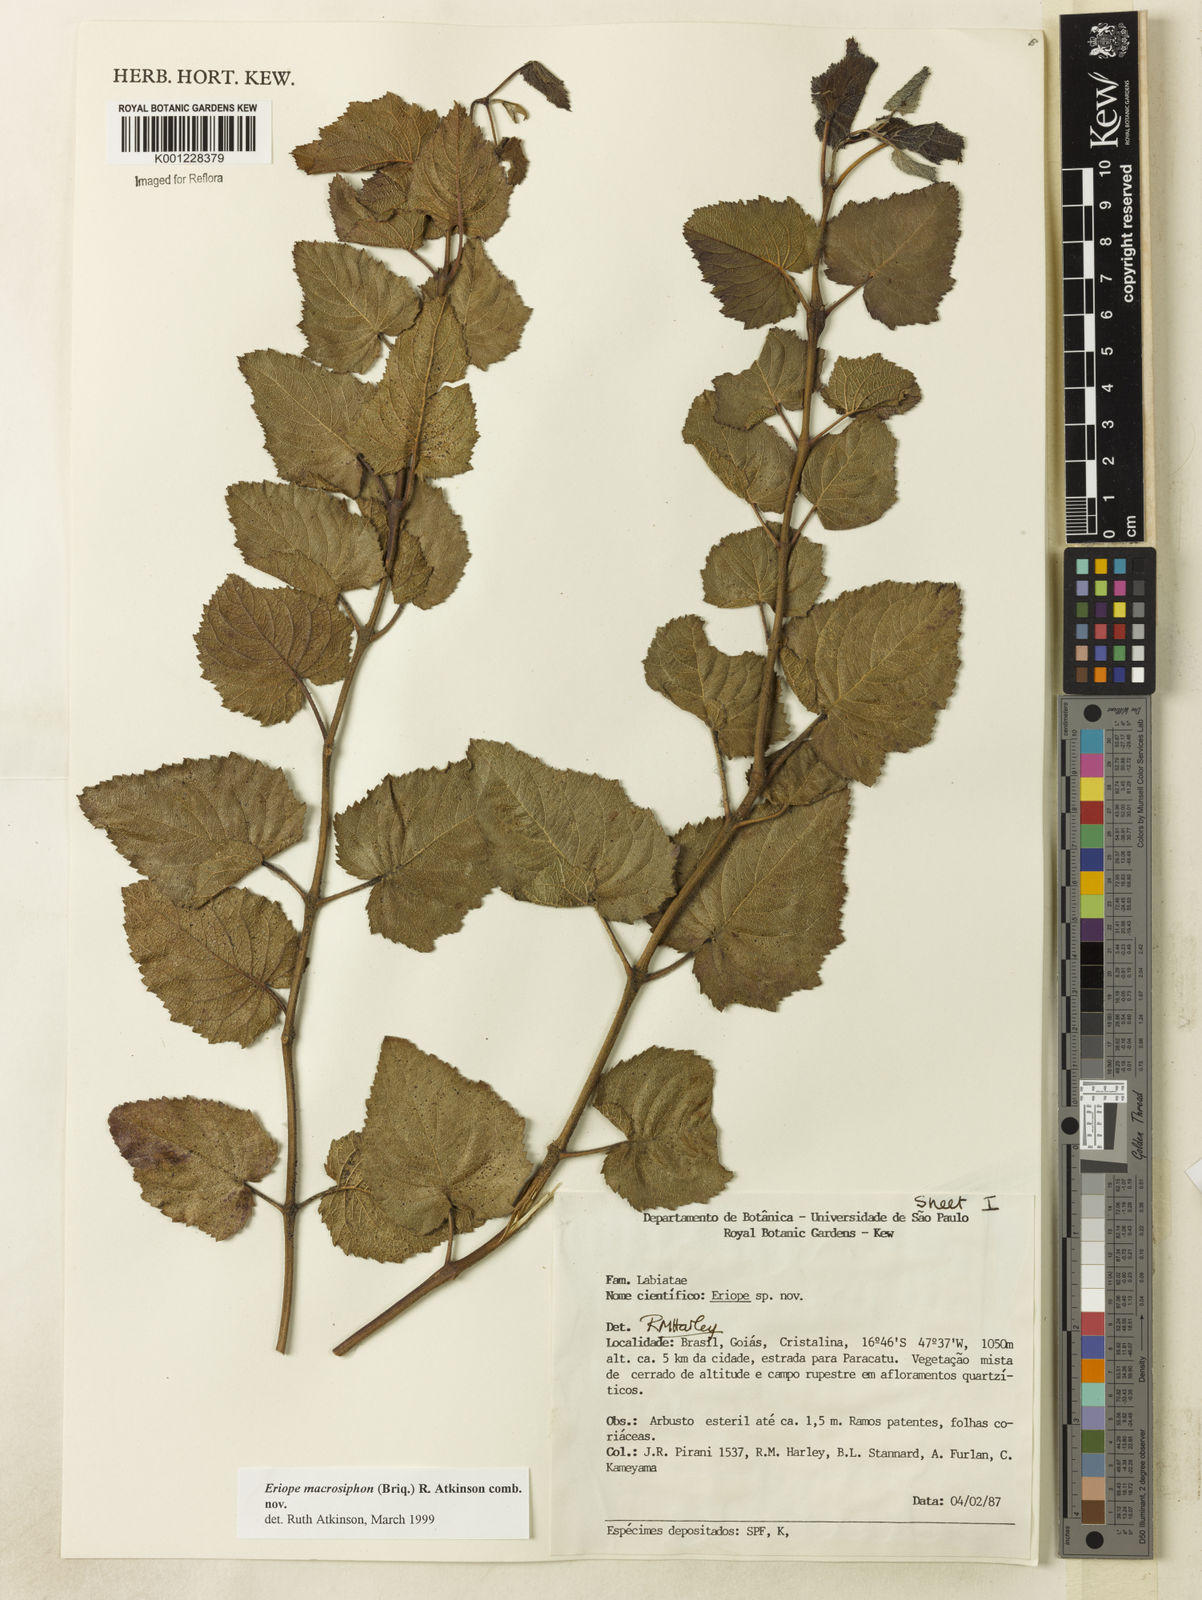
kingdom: Plantae
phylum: Tracheophyta
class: Magnoliopsida
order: Lamiales
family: Lamiaceae
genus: Hypenia
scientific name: Hypenia macrosiphon
